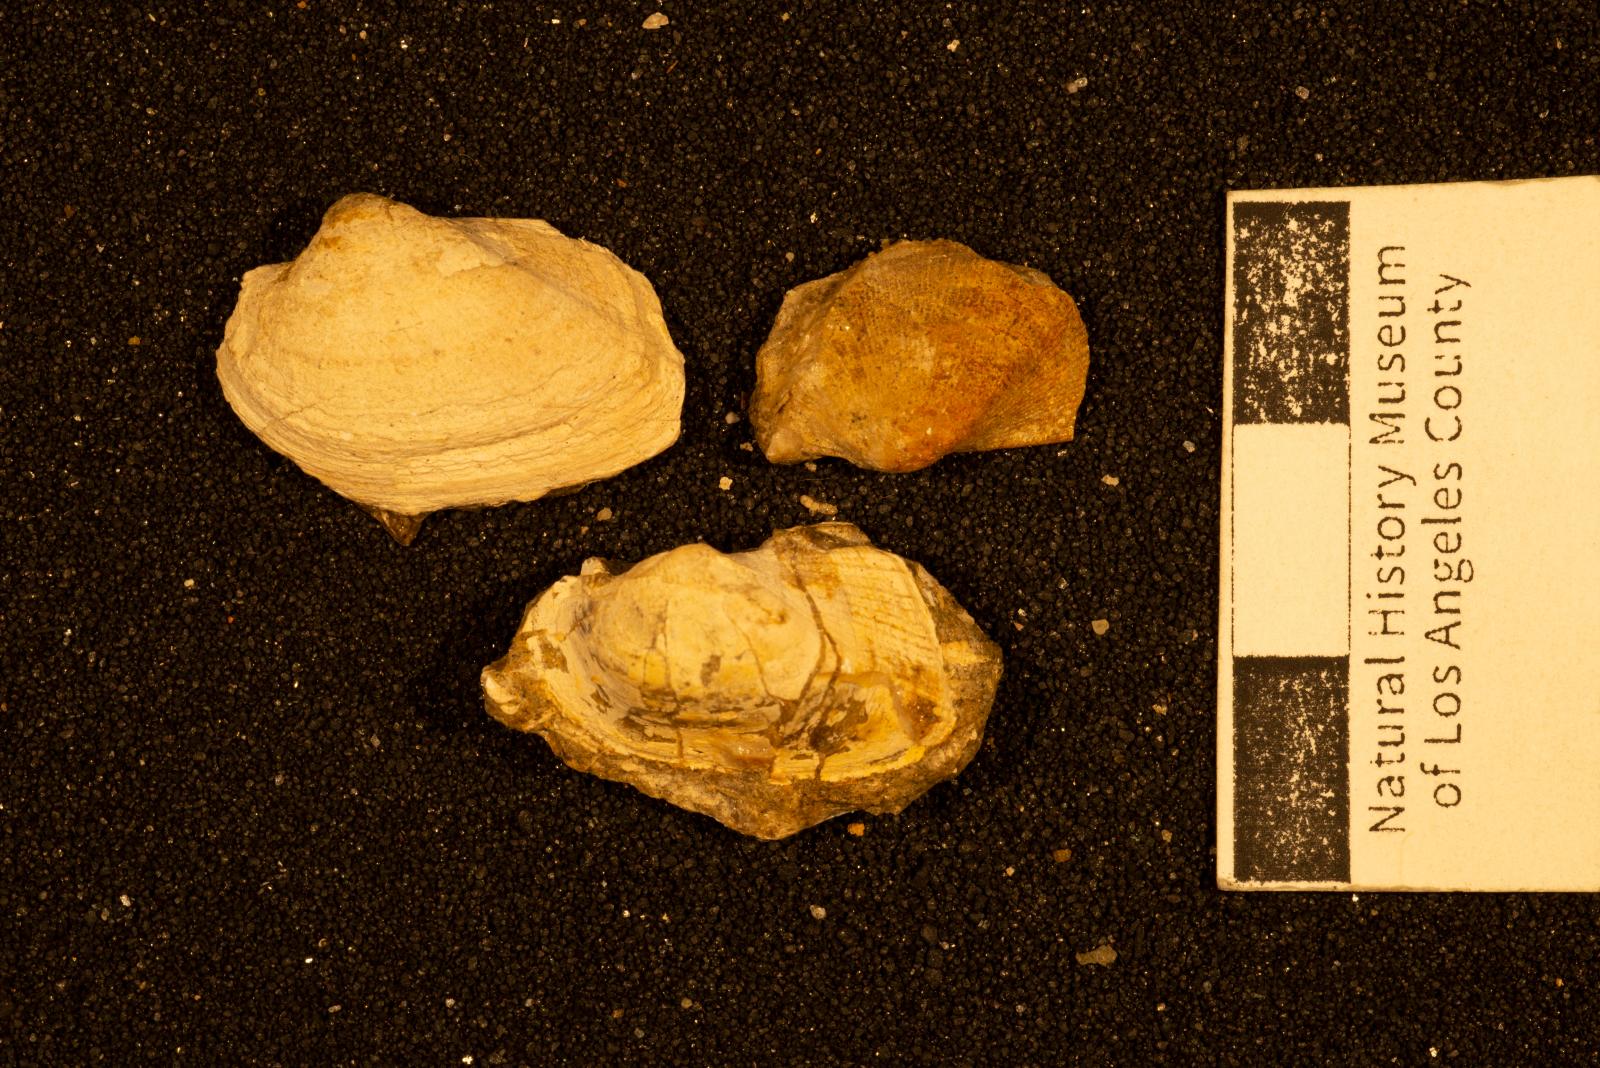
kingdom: Animalia
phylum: Mollusca
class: Bivalvia
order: Arcida
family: Arcidae
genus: Indogrammatodon
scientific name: Indogrammatodon Arca vancouverensis
